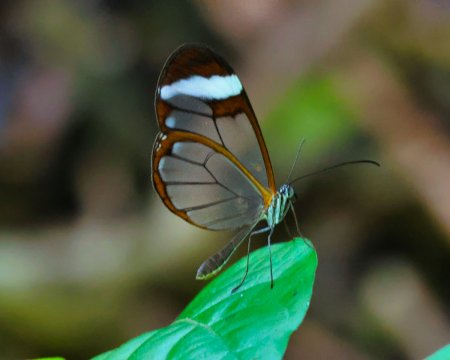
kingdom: Animalia
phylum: Arthropoda
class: Insecta
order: Lepidoptera
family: Nymphalidae
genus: Greta
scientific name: Greta morgane
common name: Thick-tipped Greta
